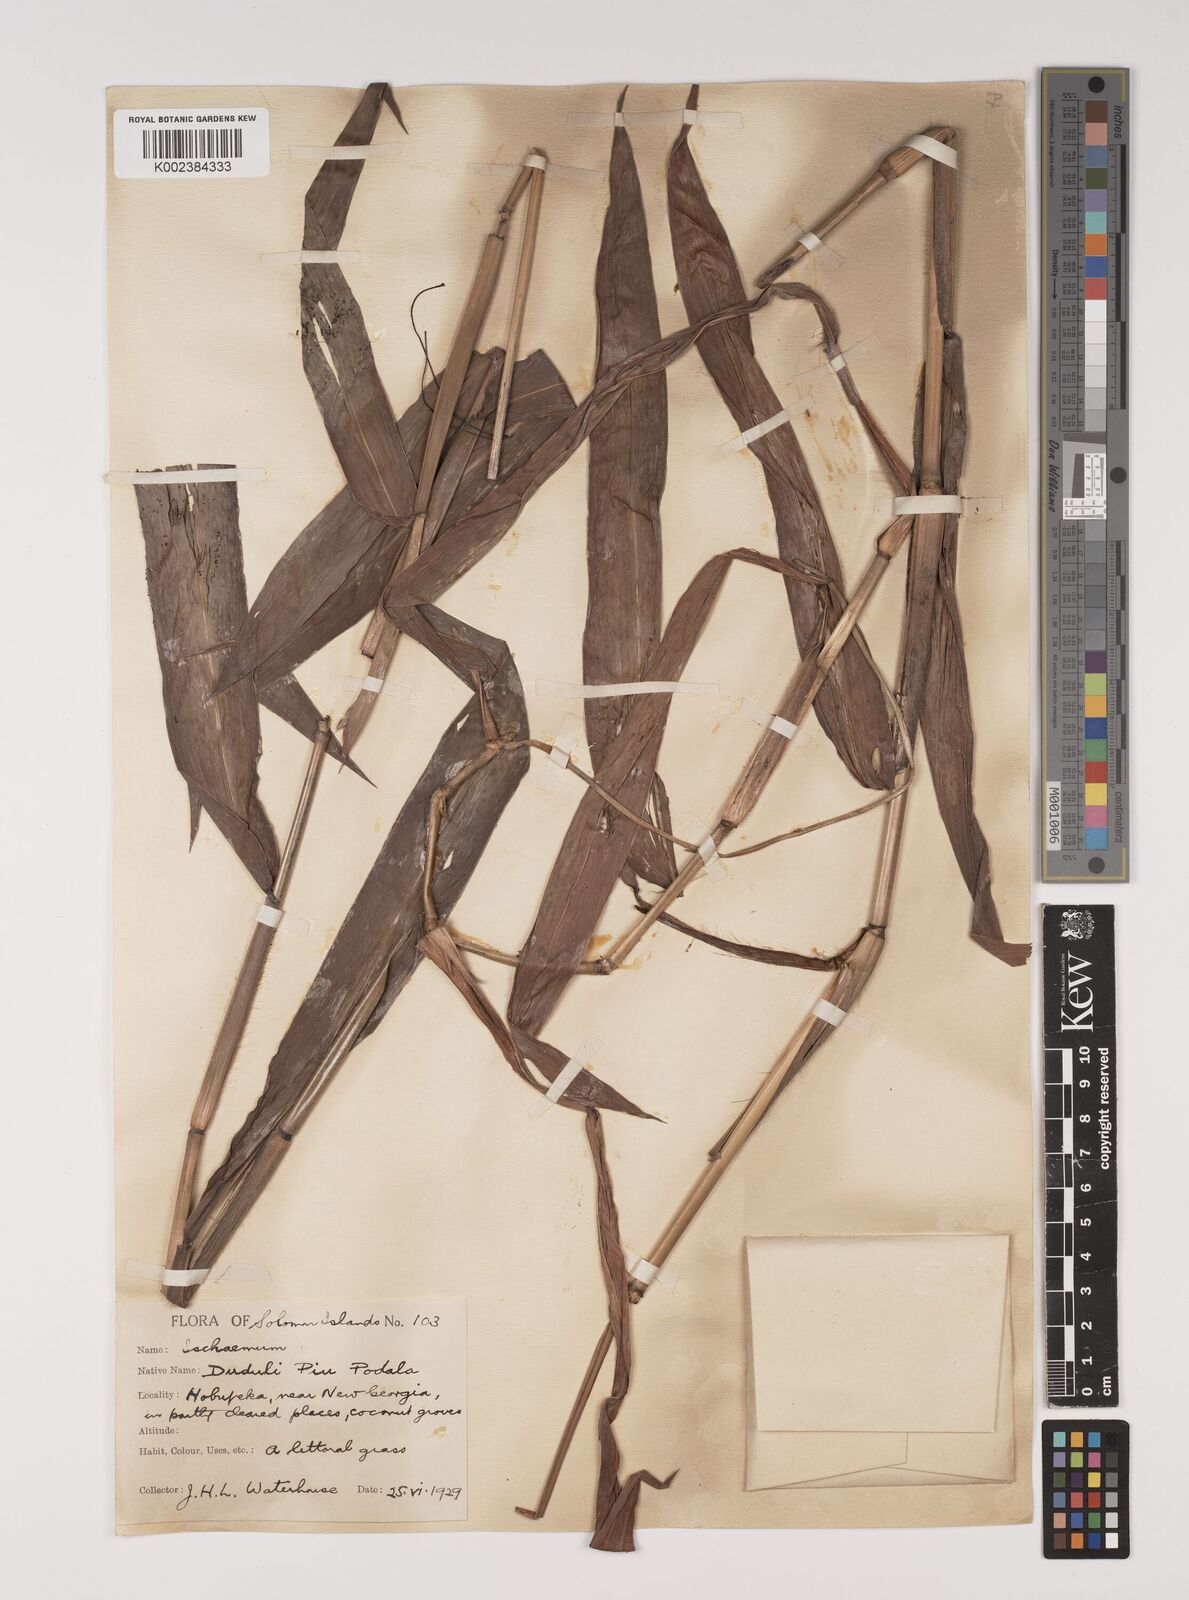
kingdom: Plantae
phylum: Tracheophyta
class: Liliopsida
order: Poales
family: Poaceae
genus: Ischaemum
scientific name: Ischaemum muticum
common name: Drought grass
